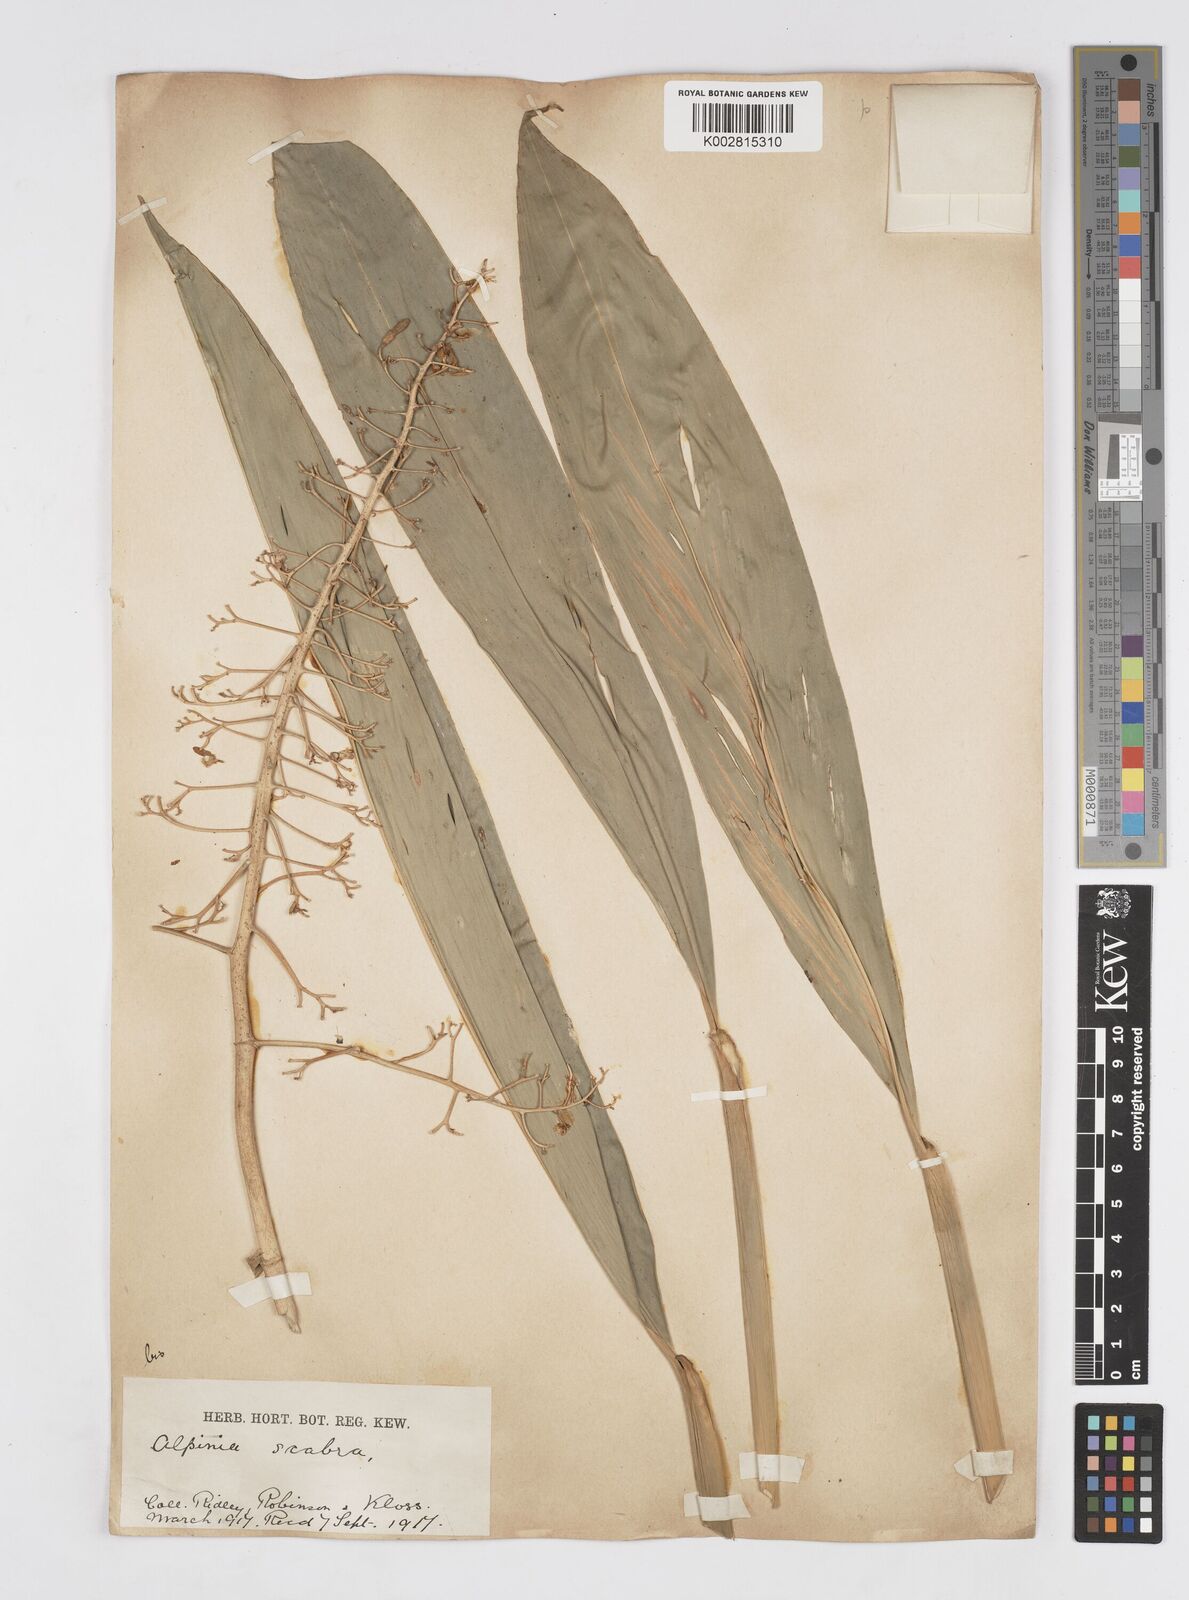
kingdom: Plantae
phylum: Tracheophyta
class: Liliopsida
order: Zingiberales
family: Zingiberaceae
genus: Alpinia
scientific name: Alpinia scabra
